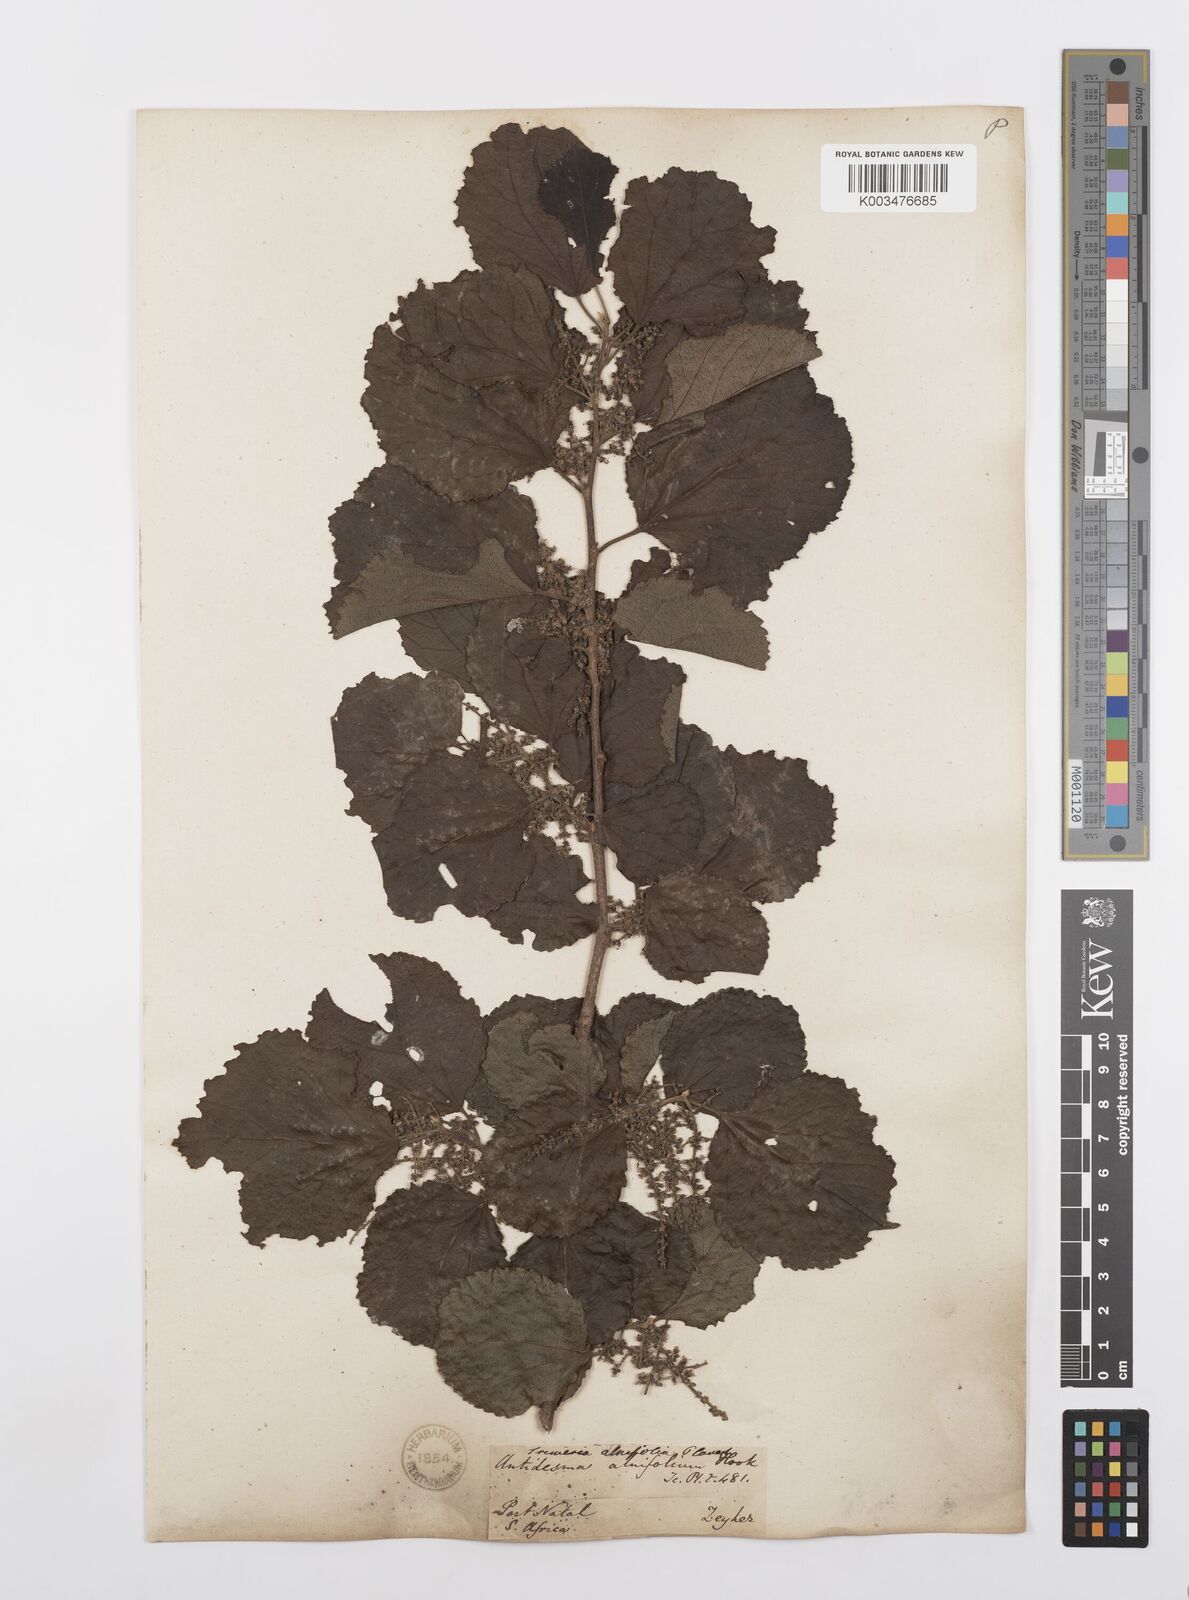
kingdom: Plantae
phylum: Tracheophyta
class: Magnoliopsida
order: Malpighiales
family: Salicaceae
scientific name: Salicaceae
